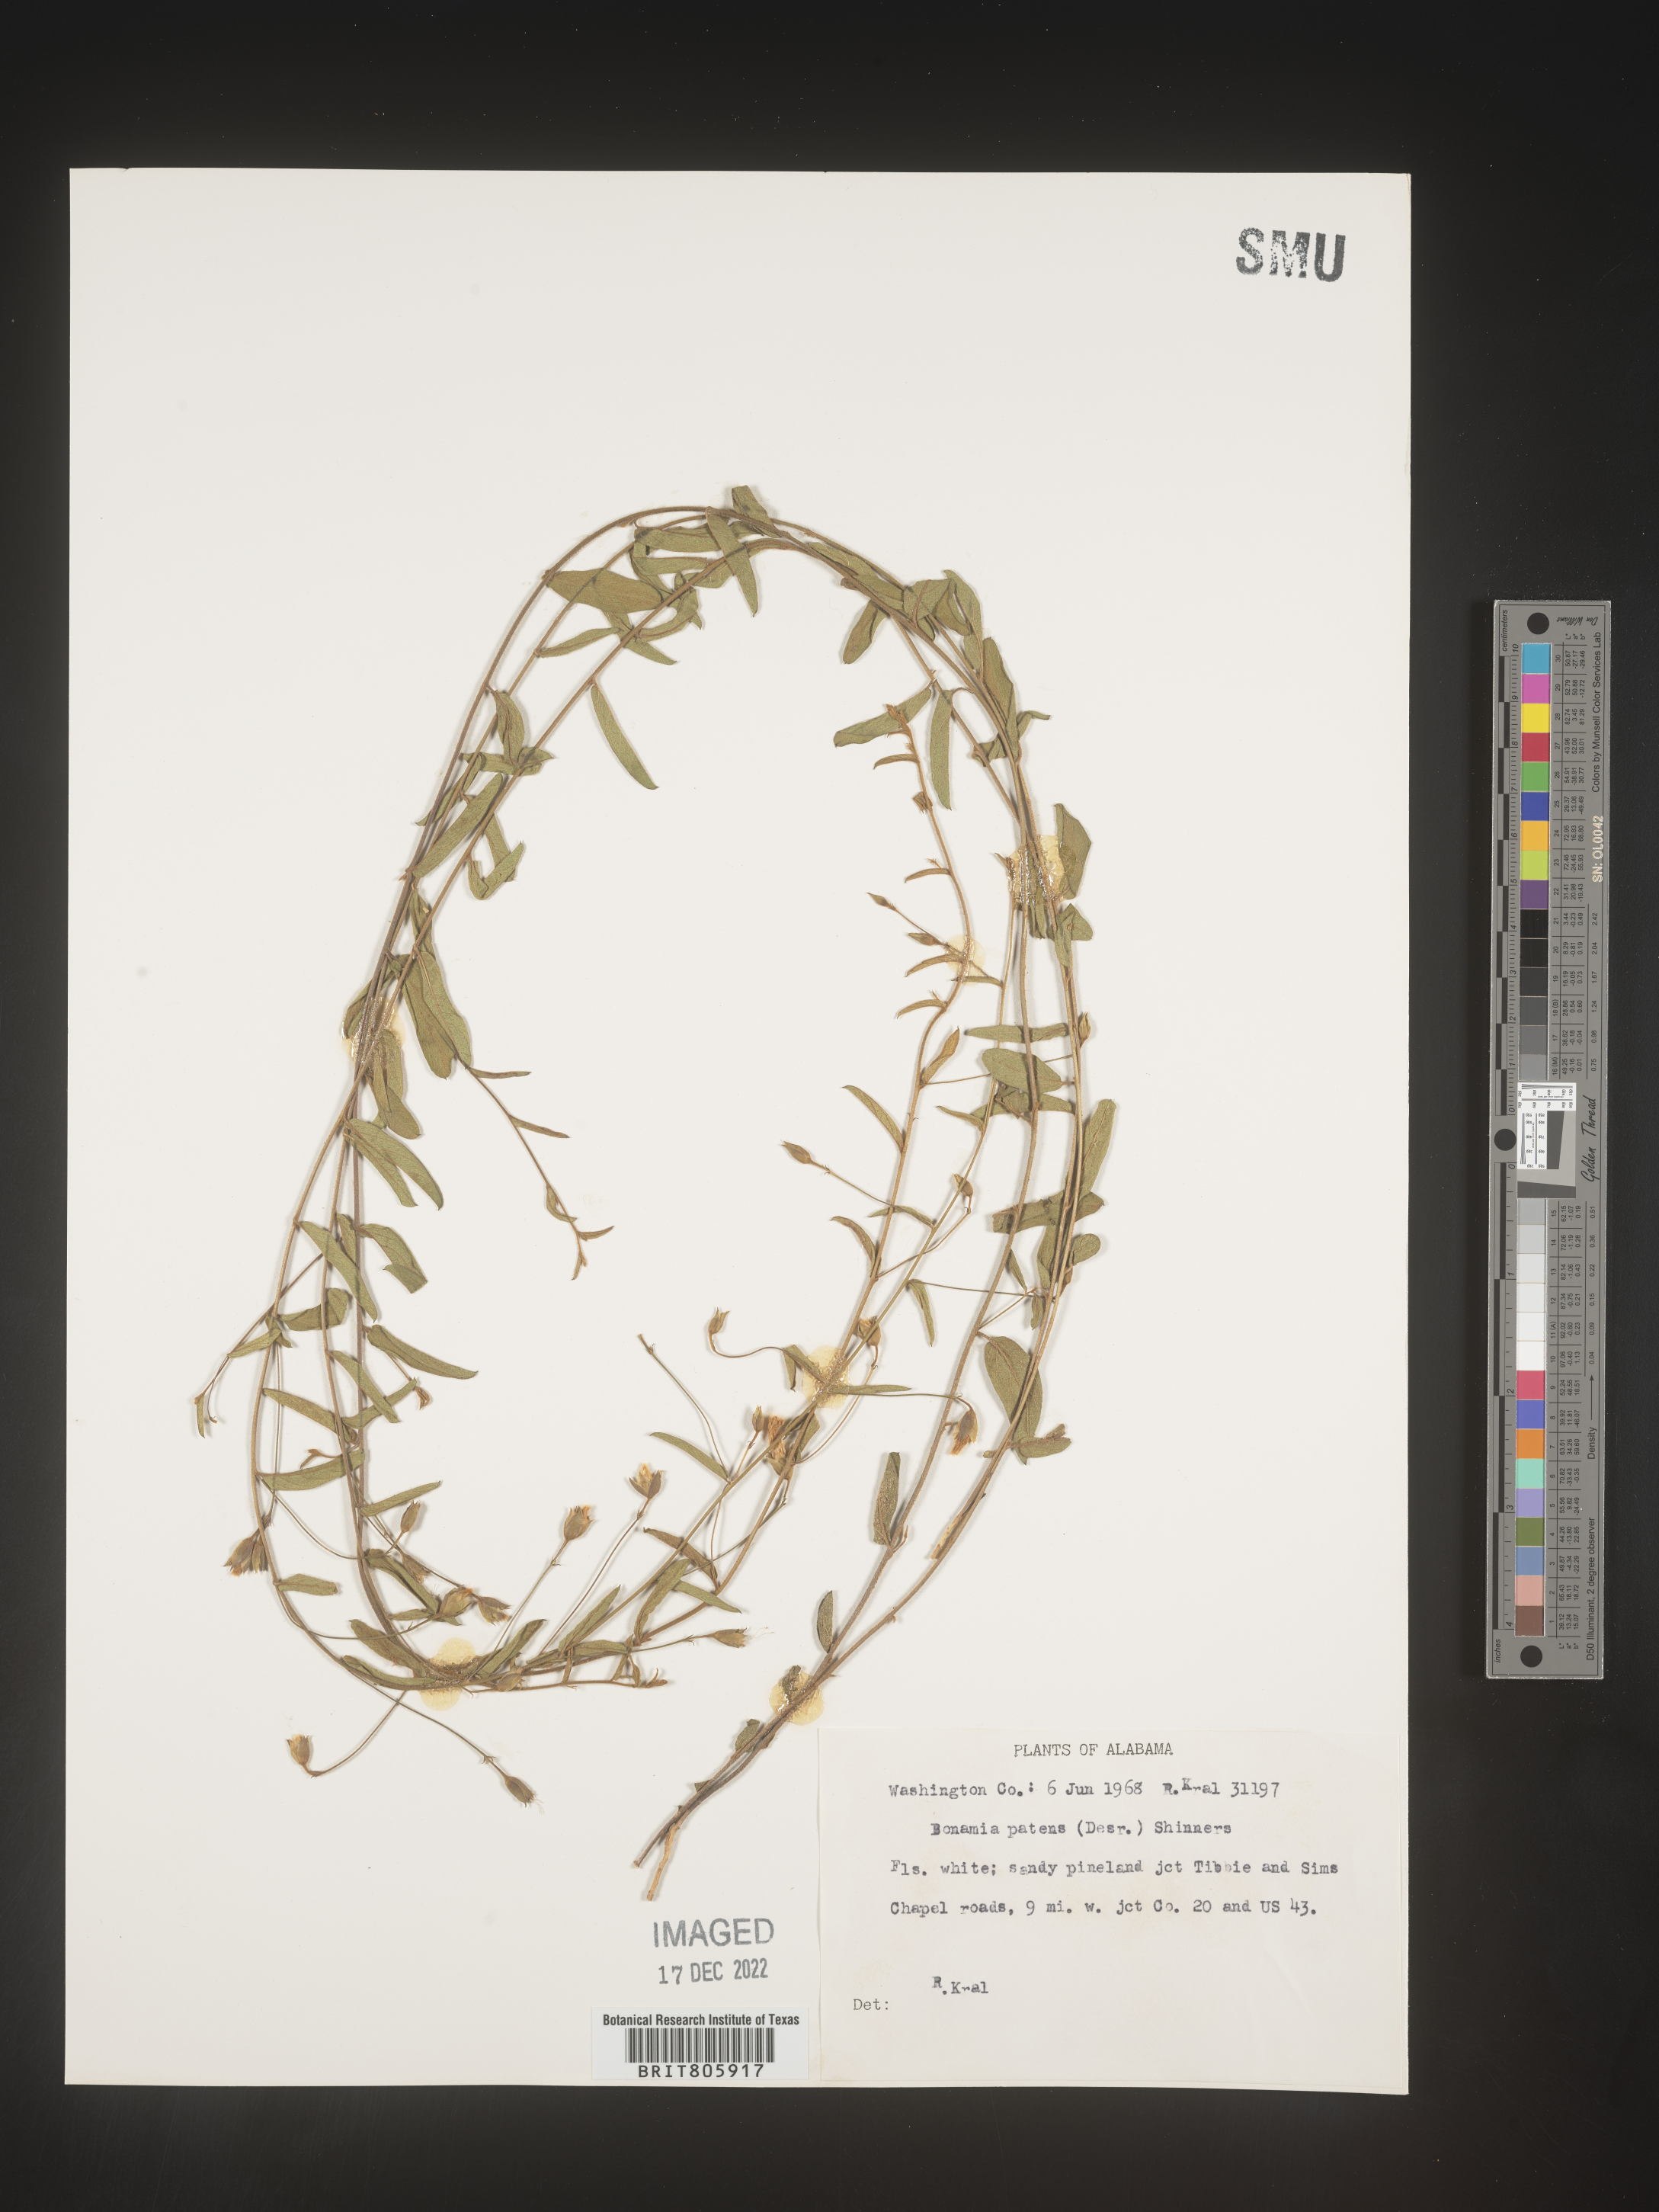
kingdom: Plantae
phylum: Tracheophyta
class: Magnoliopsida
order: Solanales
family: Convolvulaceae
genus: Stylisma
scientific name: Stylisma
